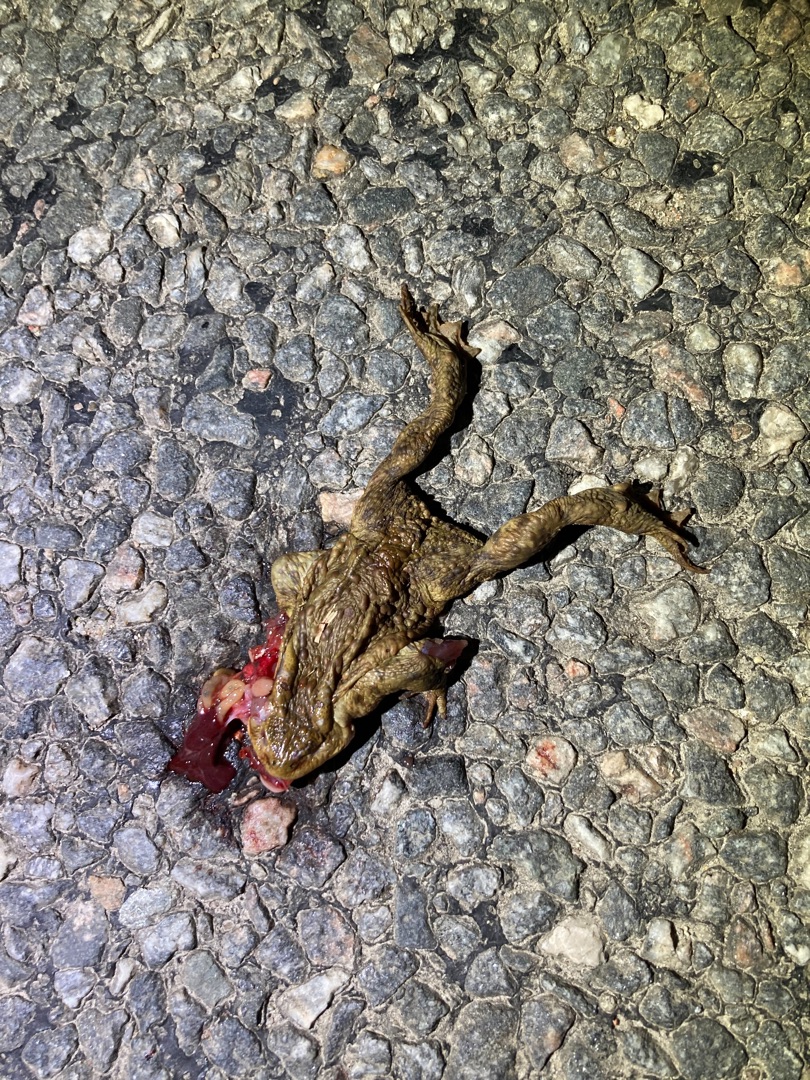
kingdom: Animalia
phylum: Chordata
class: Amphibia
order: Anura
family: Bufonidae
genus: Bufo
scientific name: Bufo bufo
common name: Skrubtudse
